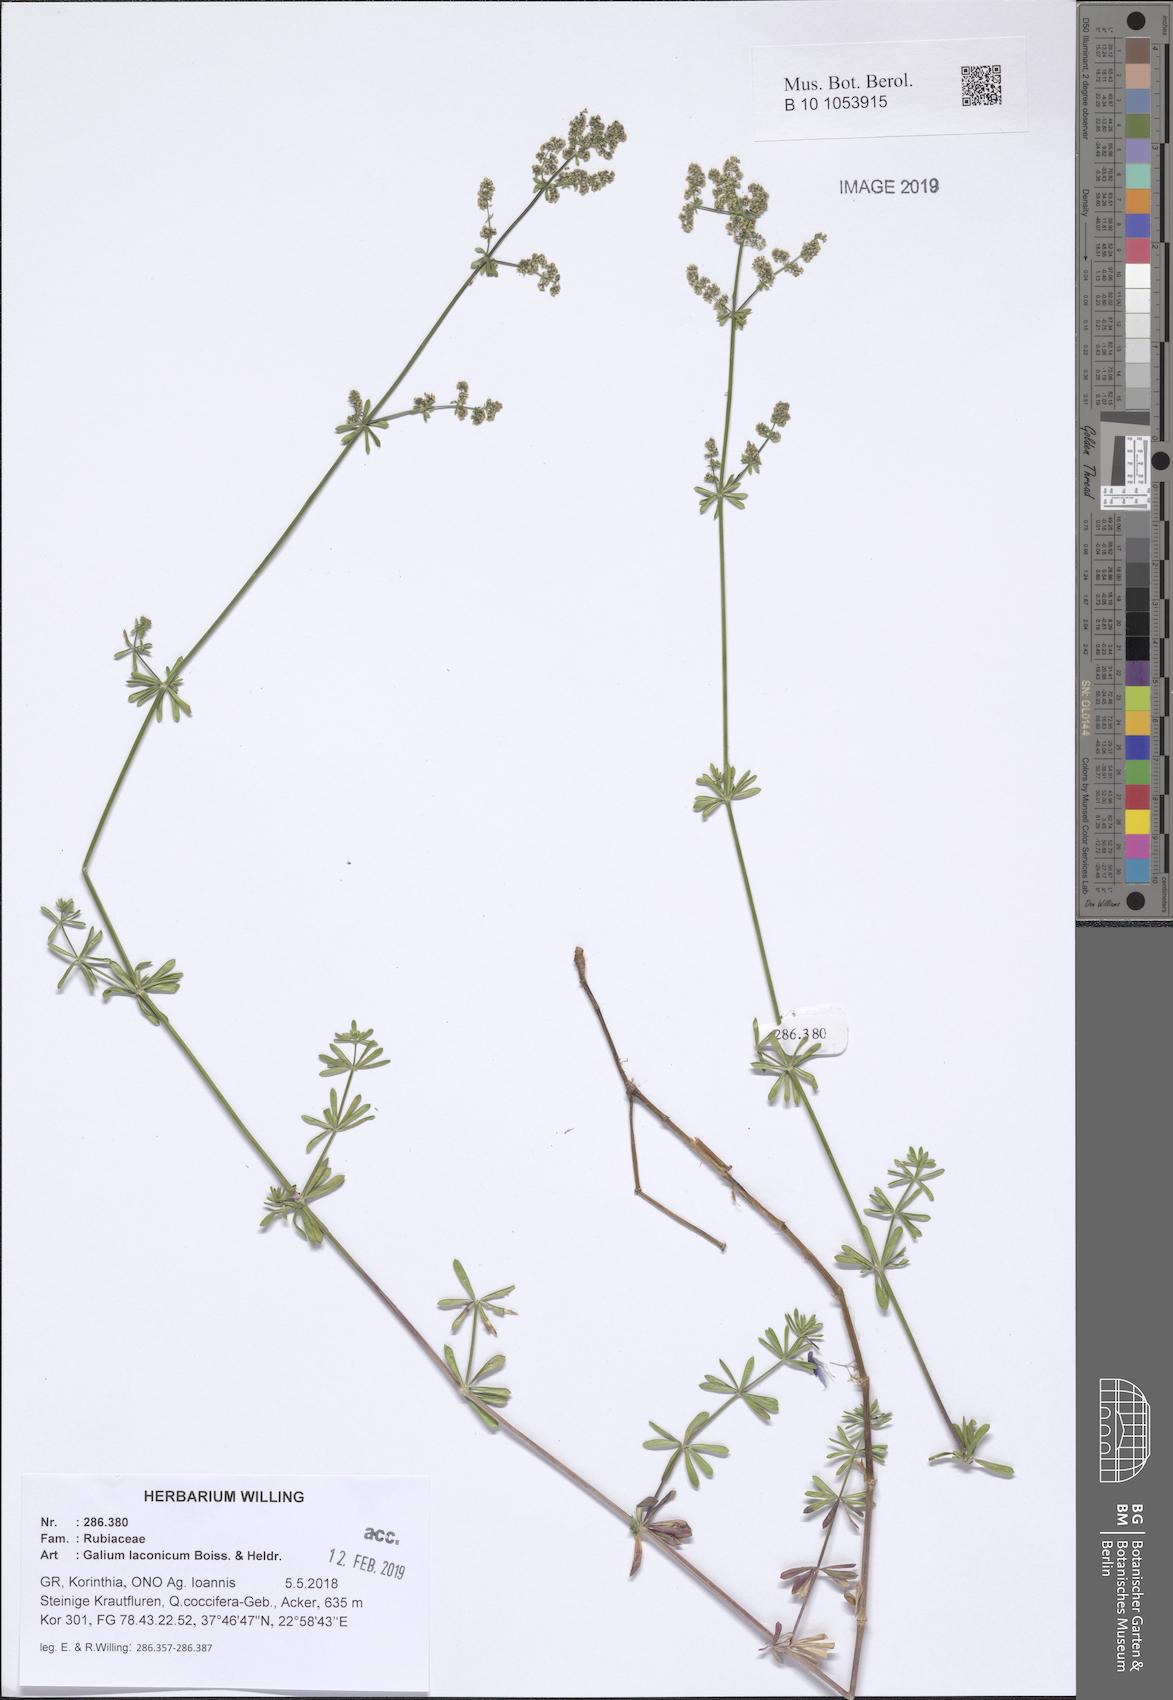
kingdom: Plantae
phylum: Tracheophyta
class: Magnoliopsida
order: Gentianales
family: Rubiaceae
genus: Galium
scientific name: Galium laconicum
